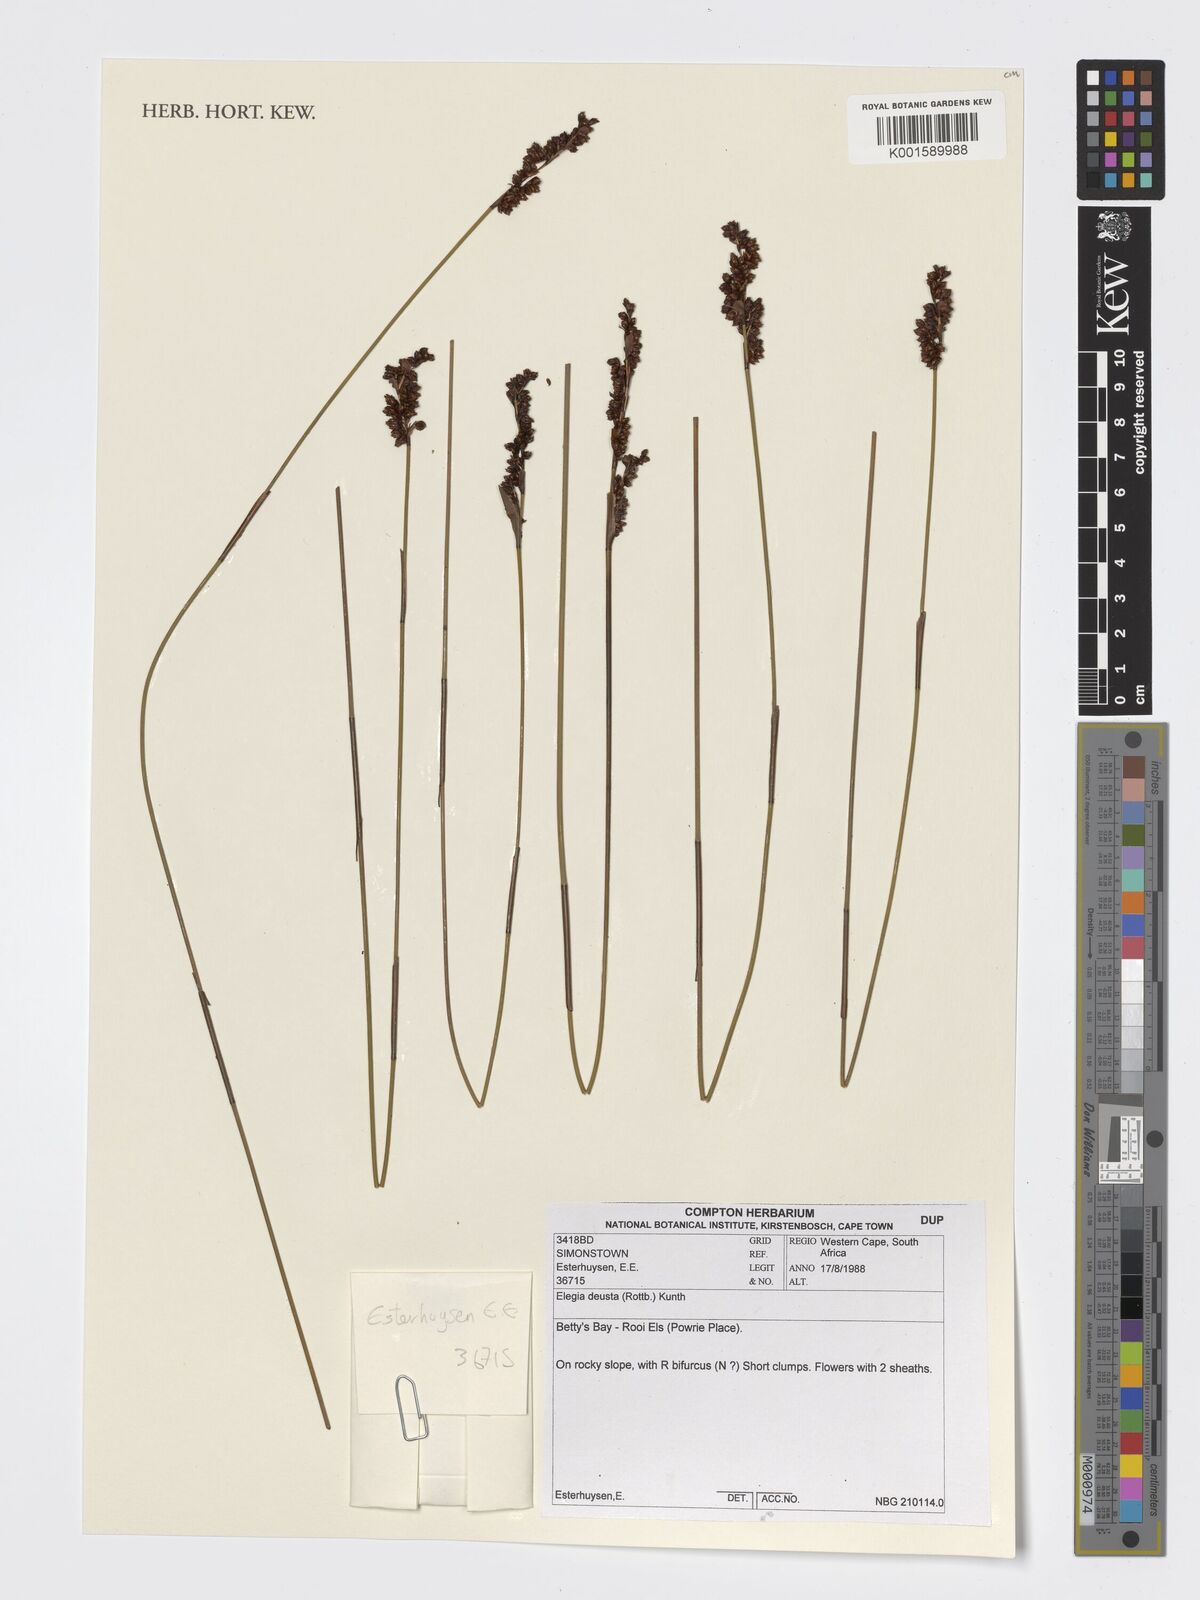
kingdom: Plantae
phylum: Tracheophyta
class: Liliopsida
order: Poales
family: Restionaceae
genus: Elegia
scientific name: Elegia deusta
